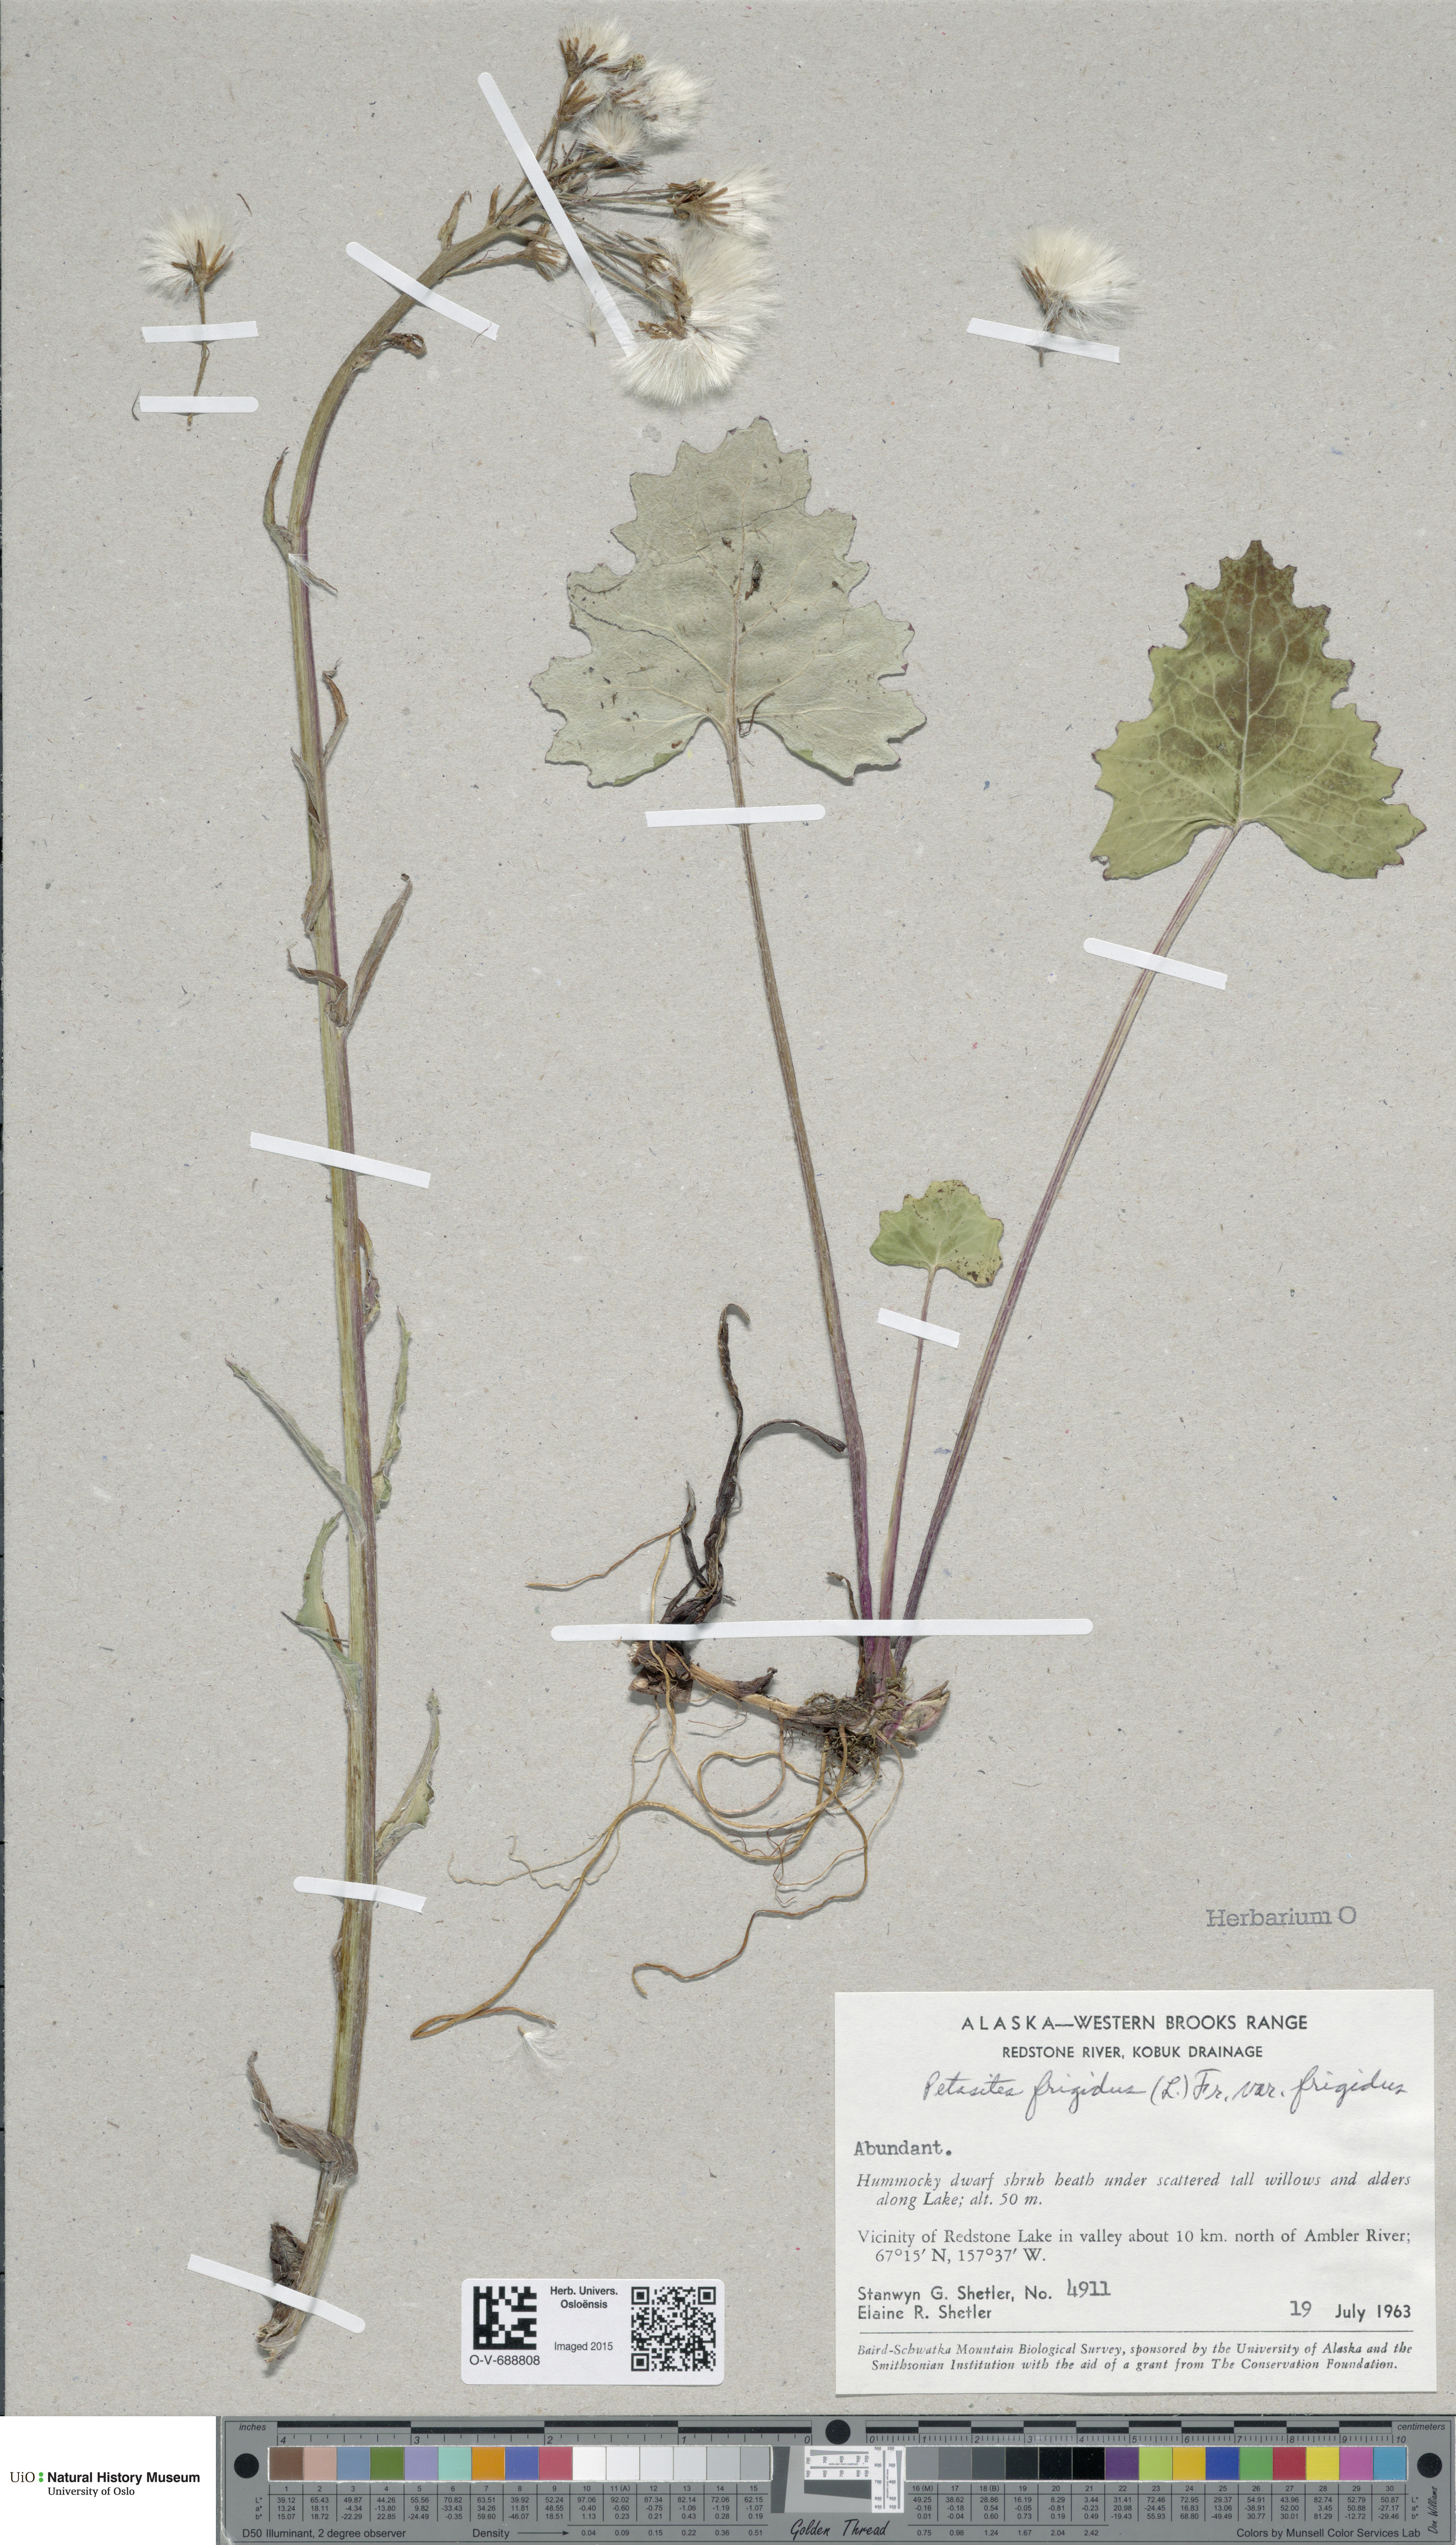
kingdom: Plantae
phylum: Tracheophyta
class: Magnoliopsida
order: Asterales
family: Asteraceae
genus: Petasites
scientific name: Petasites frigidus
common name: Arctic butterbur
